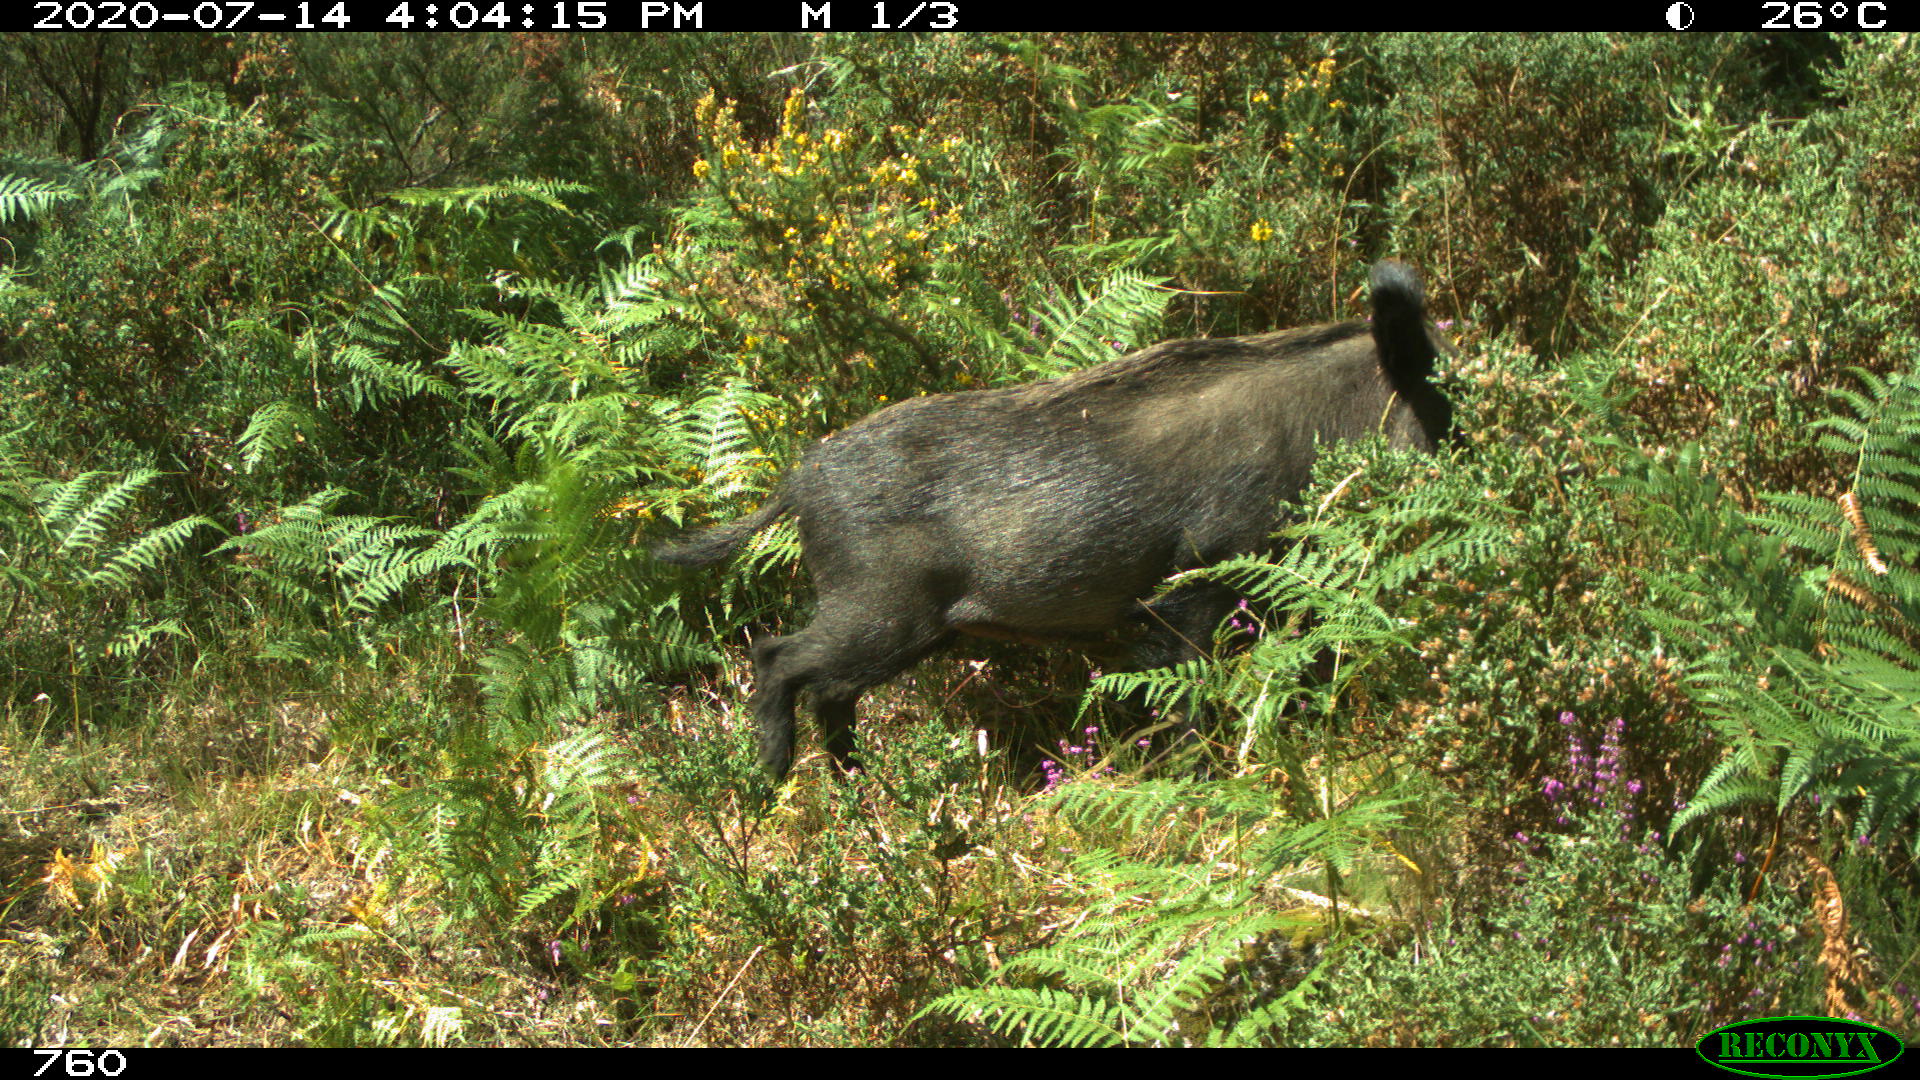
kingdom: Animalia
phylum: Chordata
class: Mammalia
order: Artiodactyla
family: Suidae
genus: Sus
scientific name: Sus scrofa
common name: Wild boar
